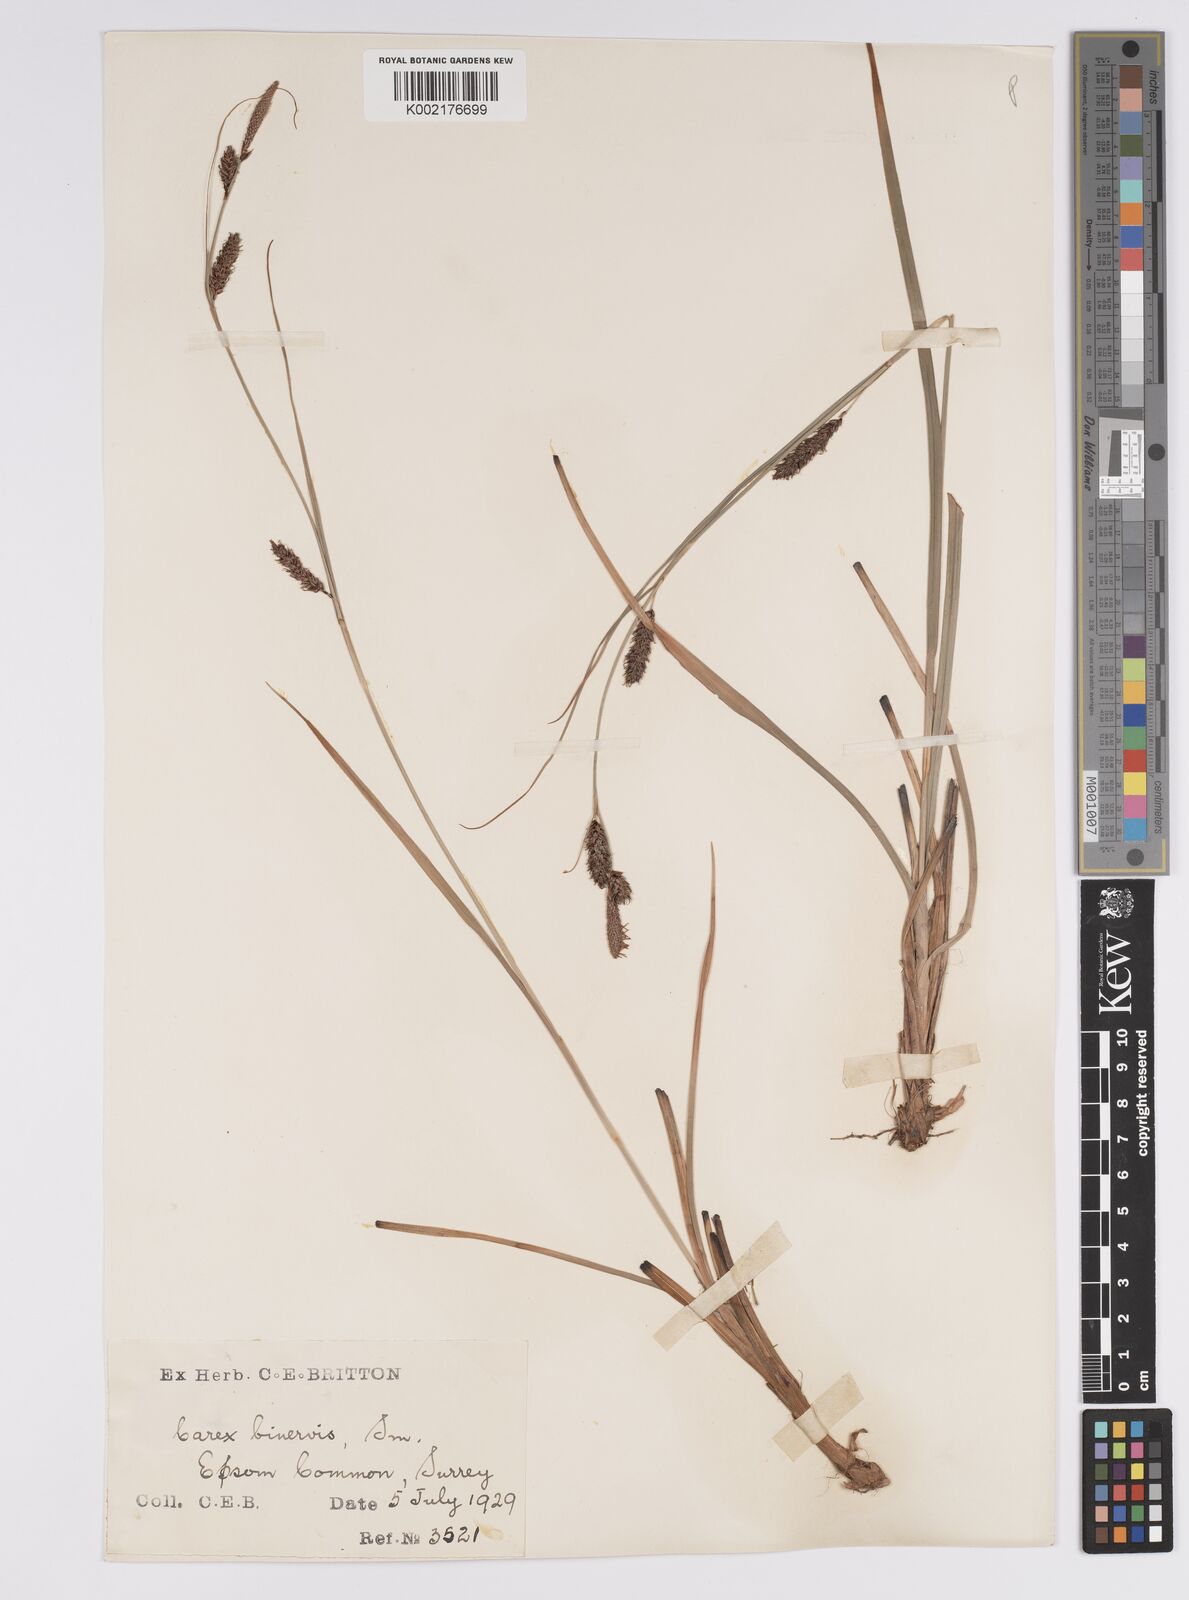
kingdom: Plantae
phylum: Tracheophyta
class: Liliopsida
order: Poales
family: Cyperaceae
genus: Carex
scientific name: Carex binervis
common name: Green-ribbed sedge
